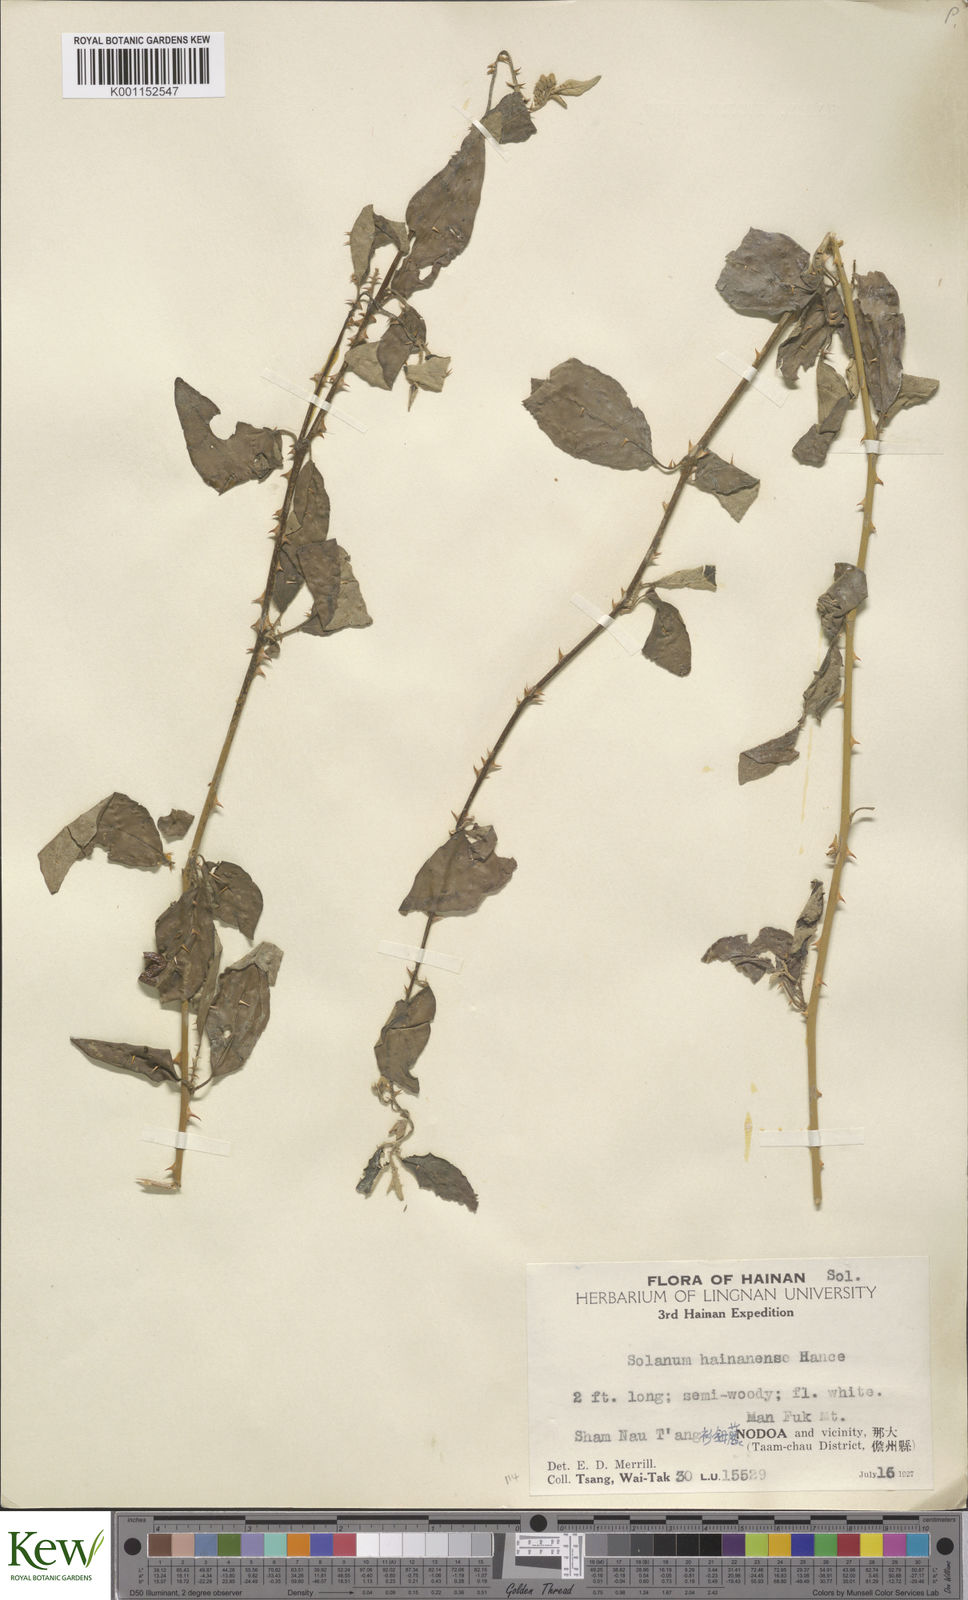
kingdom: Plantae
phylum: Tracheophyta
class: Magnoliopsida
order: Solanales
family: Solanaceae
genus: Solanum
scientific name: Solanum procumbens
